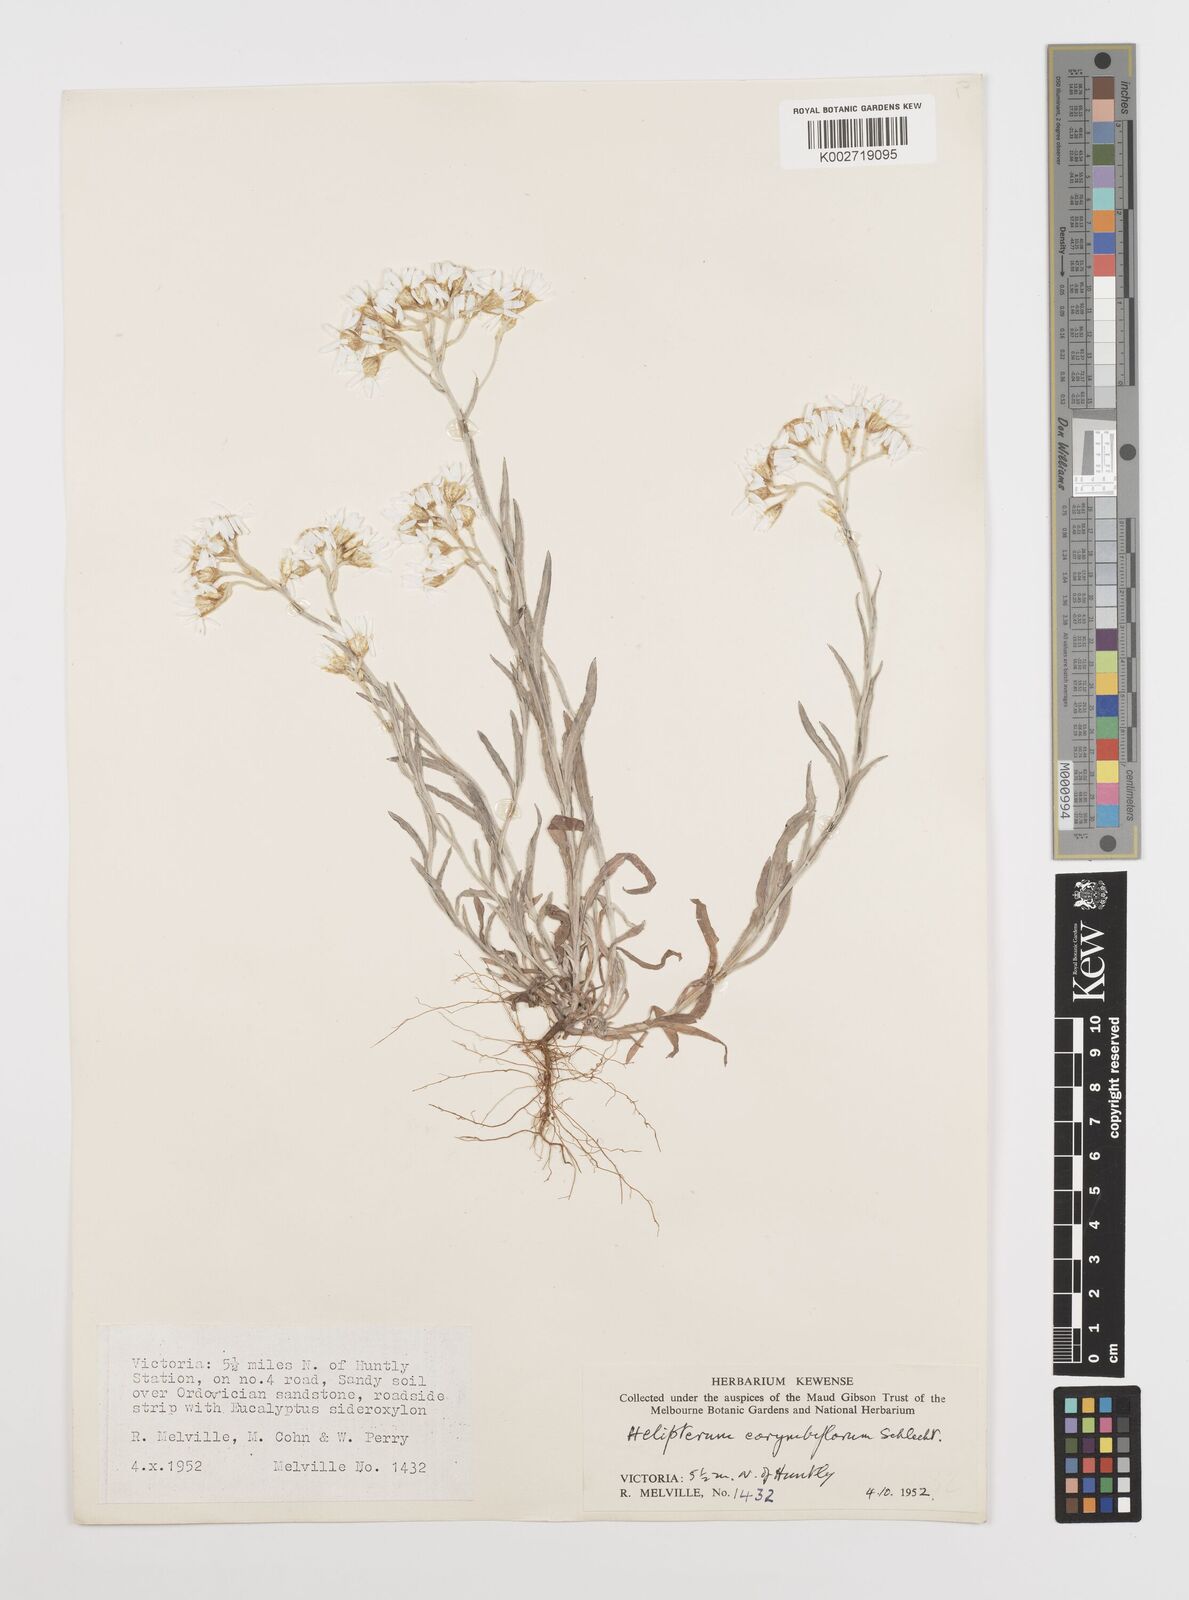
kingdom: Plantae
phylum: Tracheophyta
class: Magnoliopsida
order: Asterales
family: Asteraceae
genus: Rhodanthe
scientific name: Rhodanthe corymbiflora
